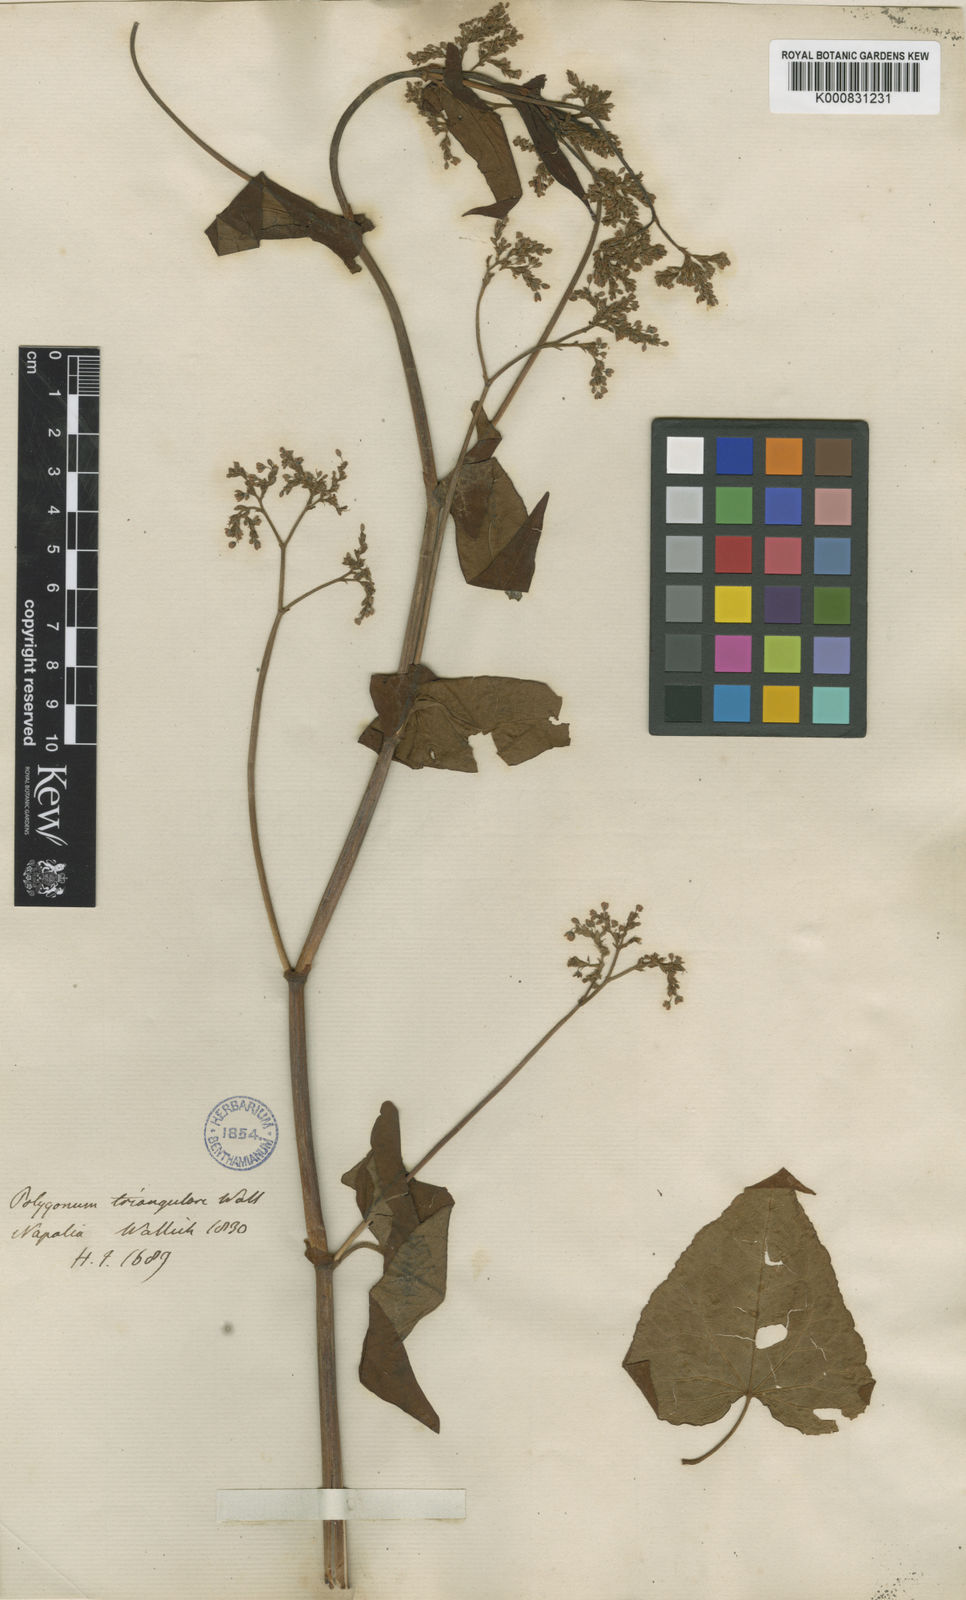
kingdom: Plantae
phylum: Tracheophyta
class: Magnoliopsida
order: Caryophyllales
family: Polygonaceae
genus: Fagopyrum
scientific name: Fagopyrum cymosum
